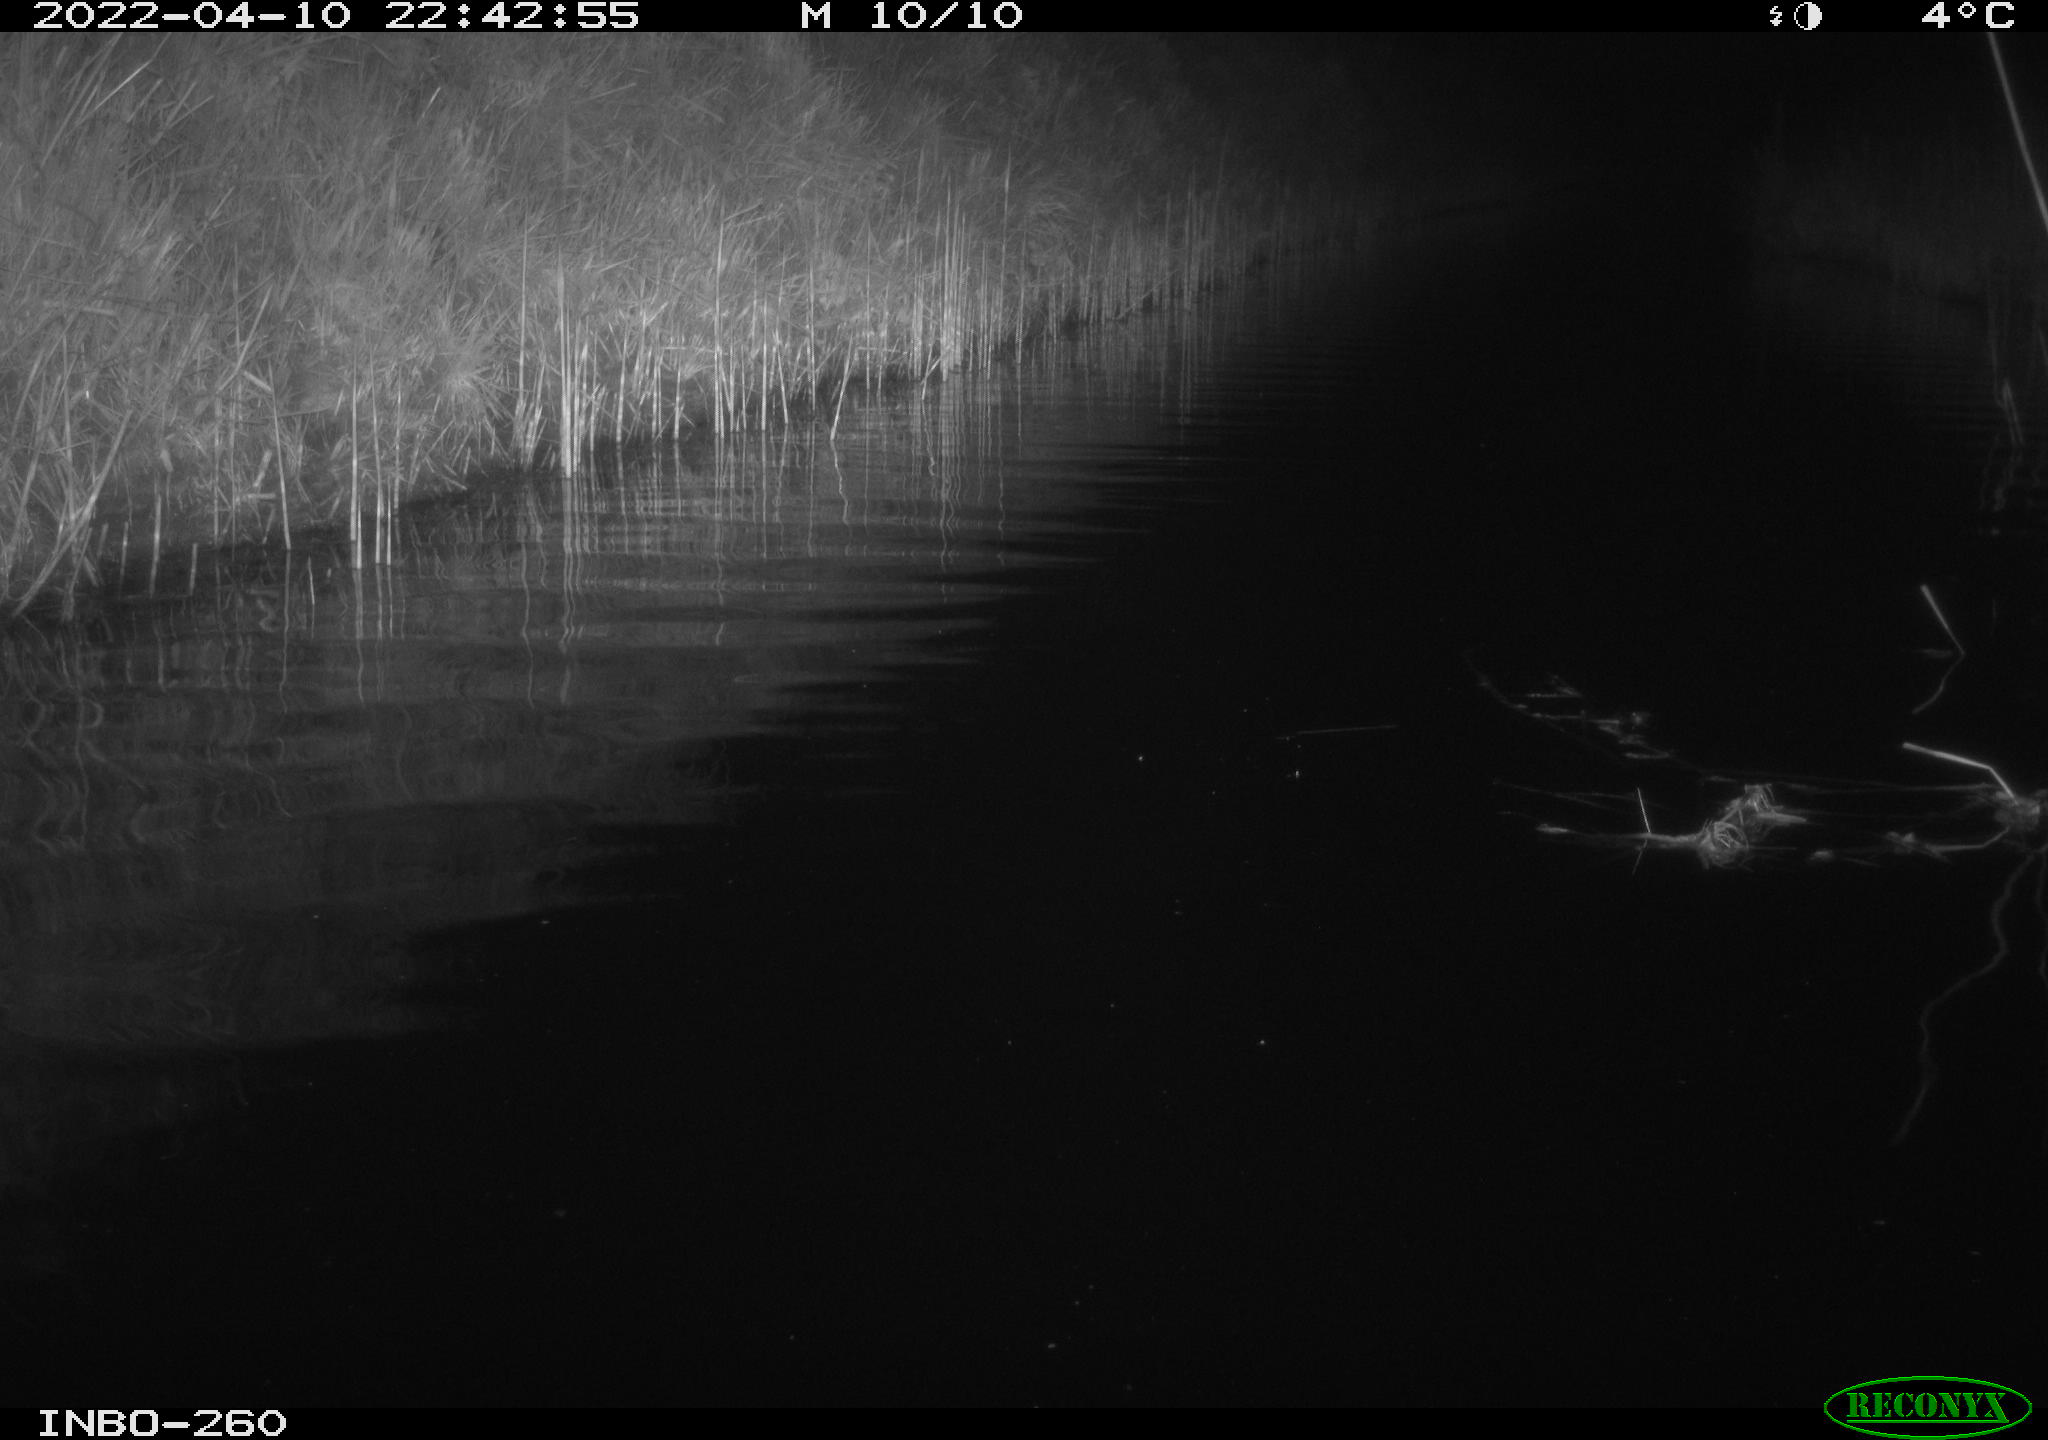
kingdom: Animalia
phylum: Chordata
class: Mammalia
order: Rodentia
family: Cricetidae
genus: Ondatra
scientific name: Ondatra zibethicus
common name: Muskrat
